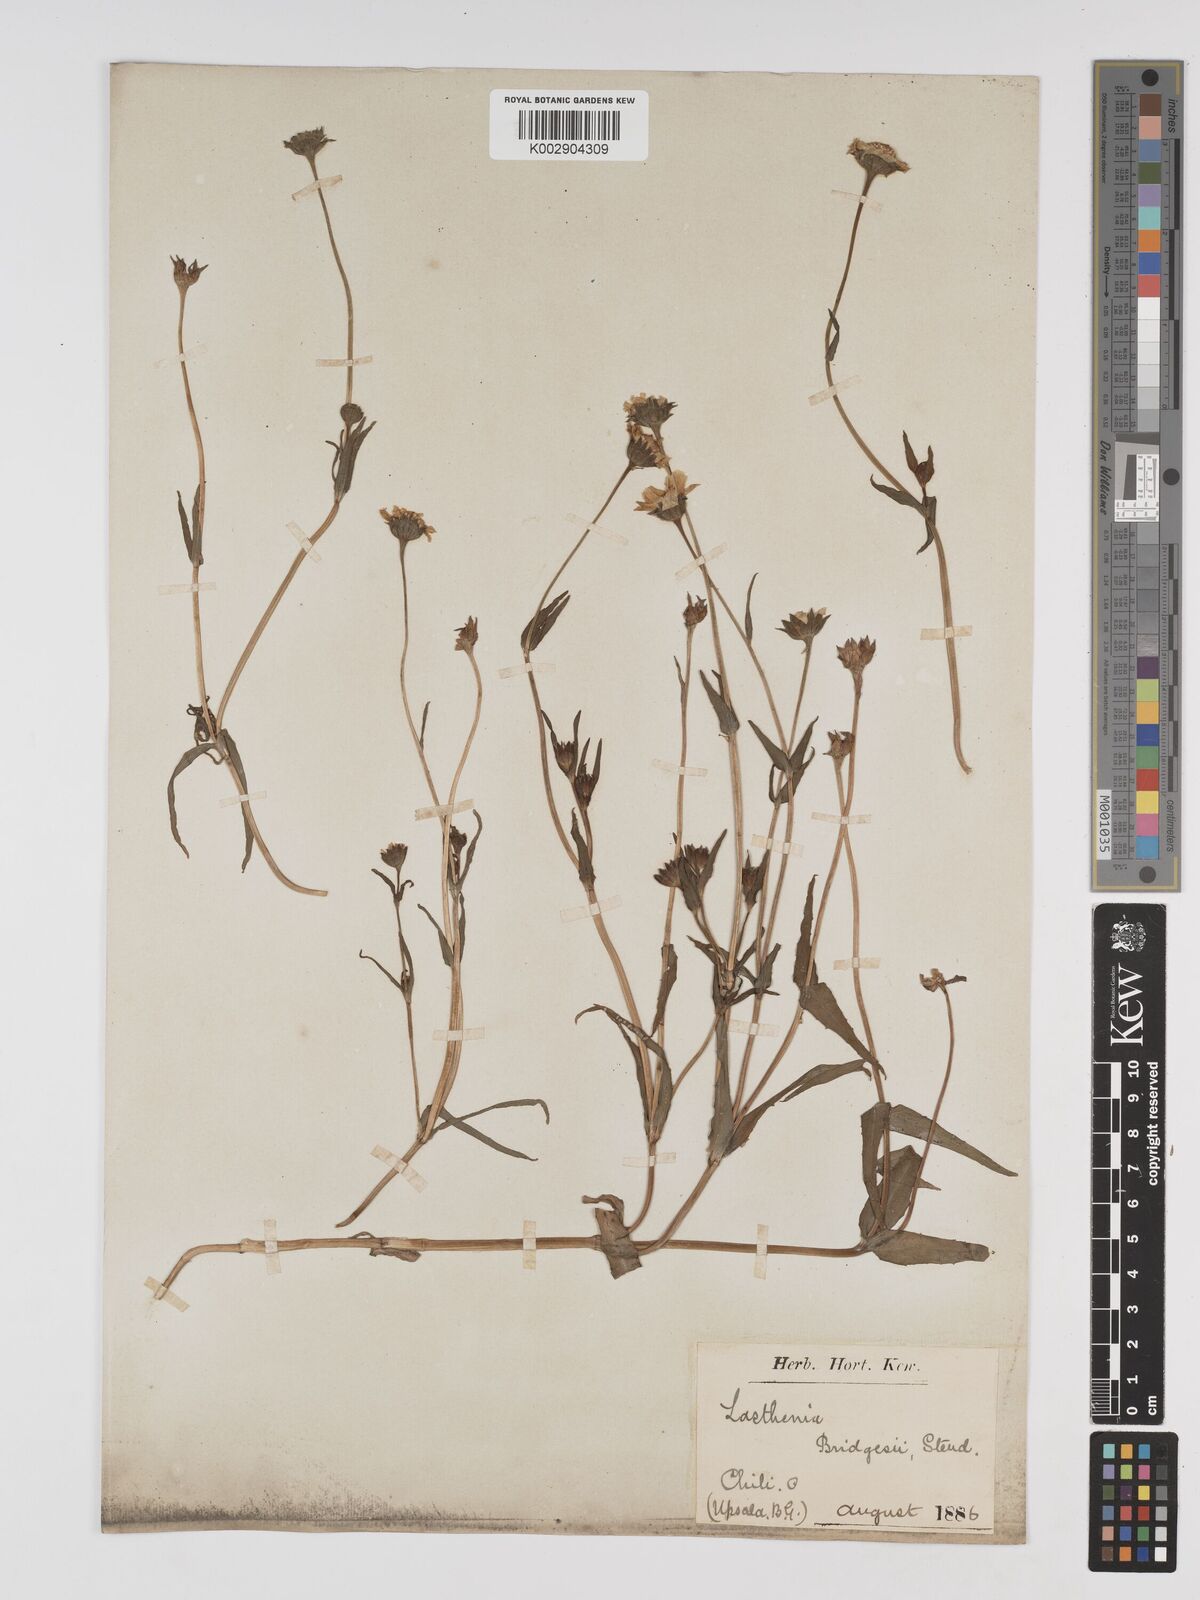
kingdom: Plantae
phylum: Tracheophyta
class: Magnoliopsida
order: Asterales
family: Asteraceae
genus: Lasthenia
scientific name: Lasthenia kunthii
